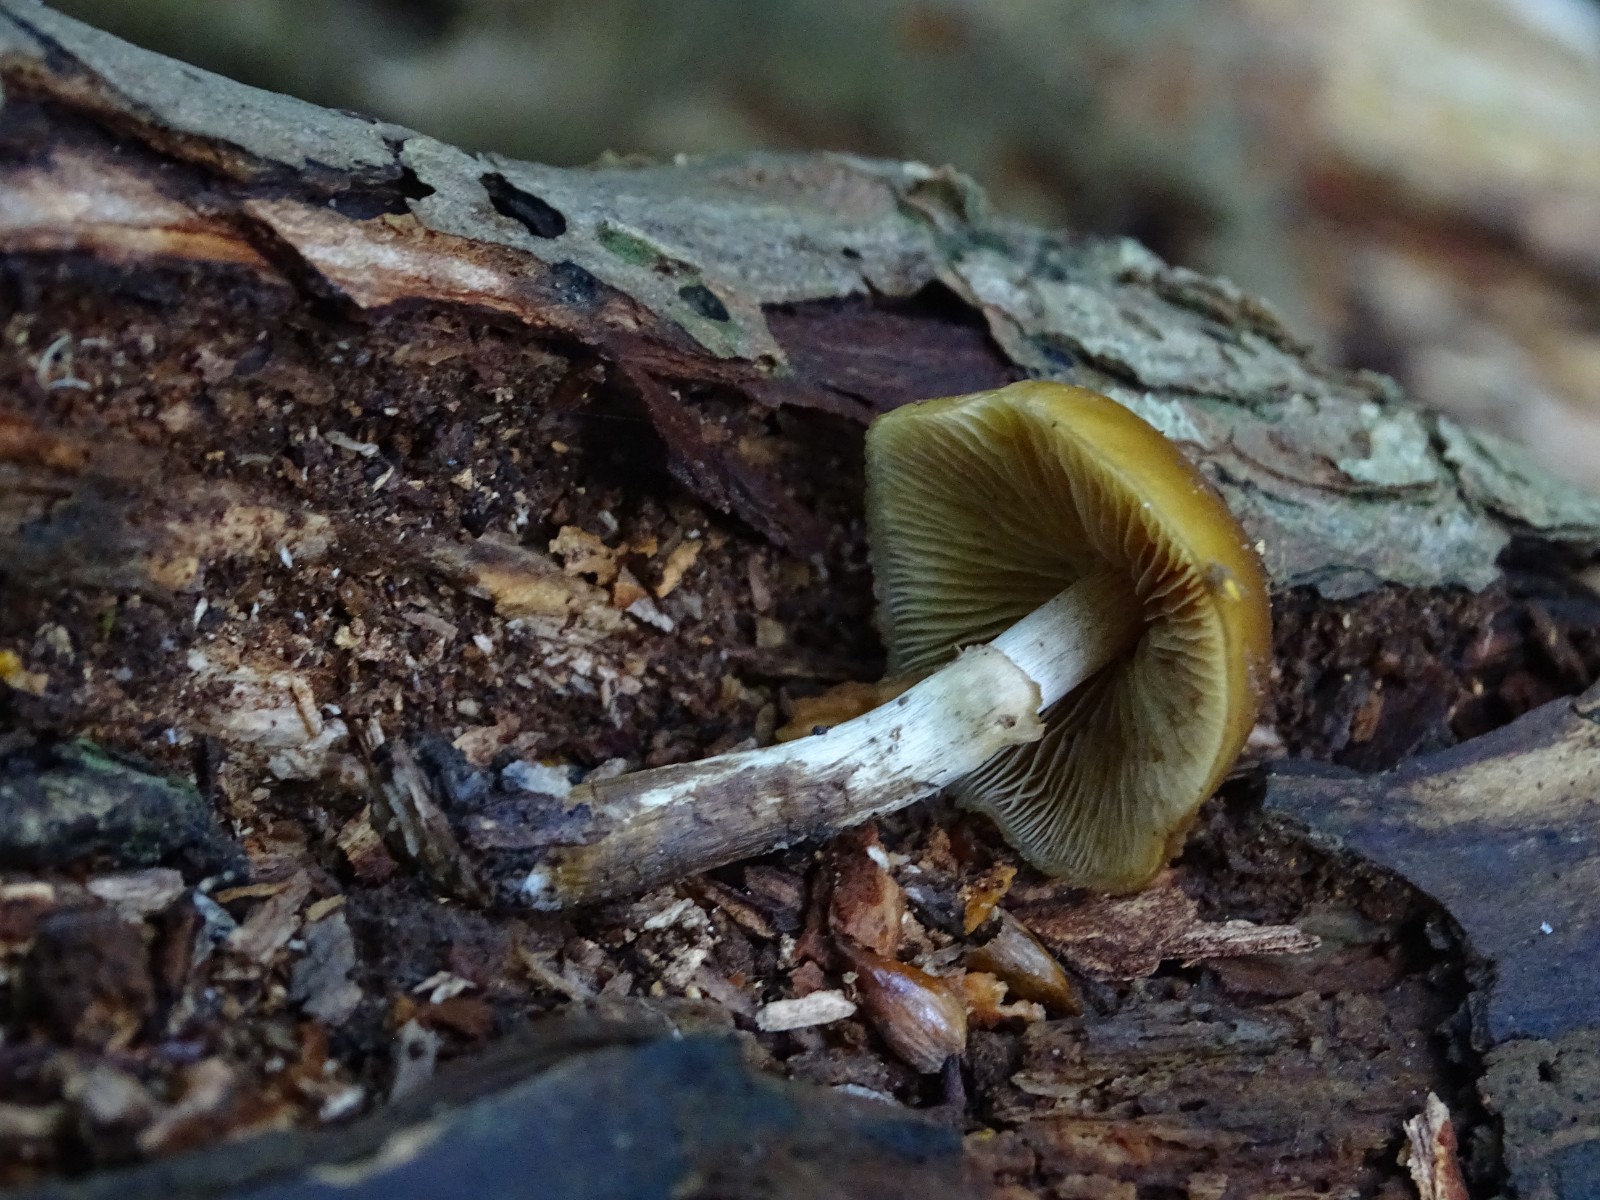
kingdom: Fungi
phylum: Basidiomycota
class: Agaricomycetes
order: Agaricales
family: Hymenogastraceae
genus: Galerina
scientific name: Galerina marginata
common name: randbæltet hjelmhat
